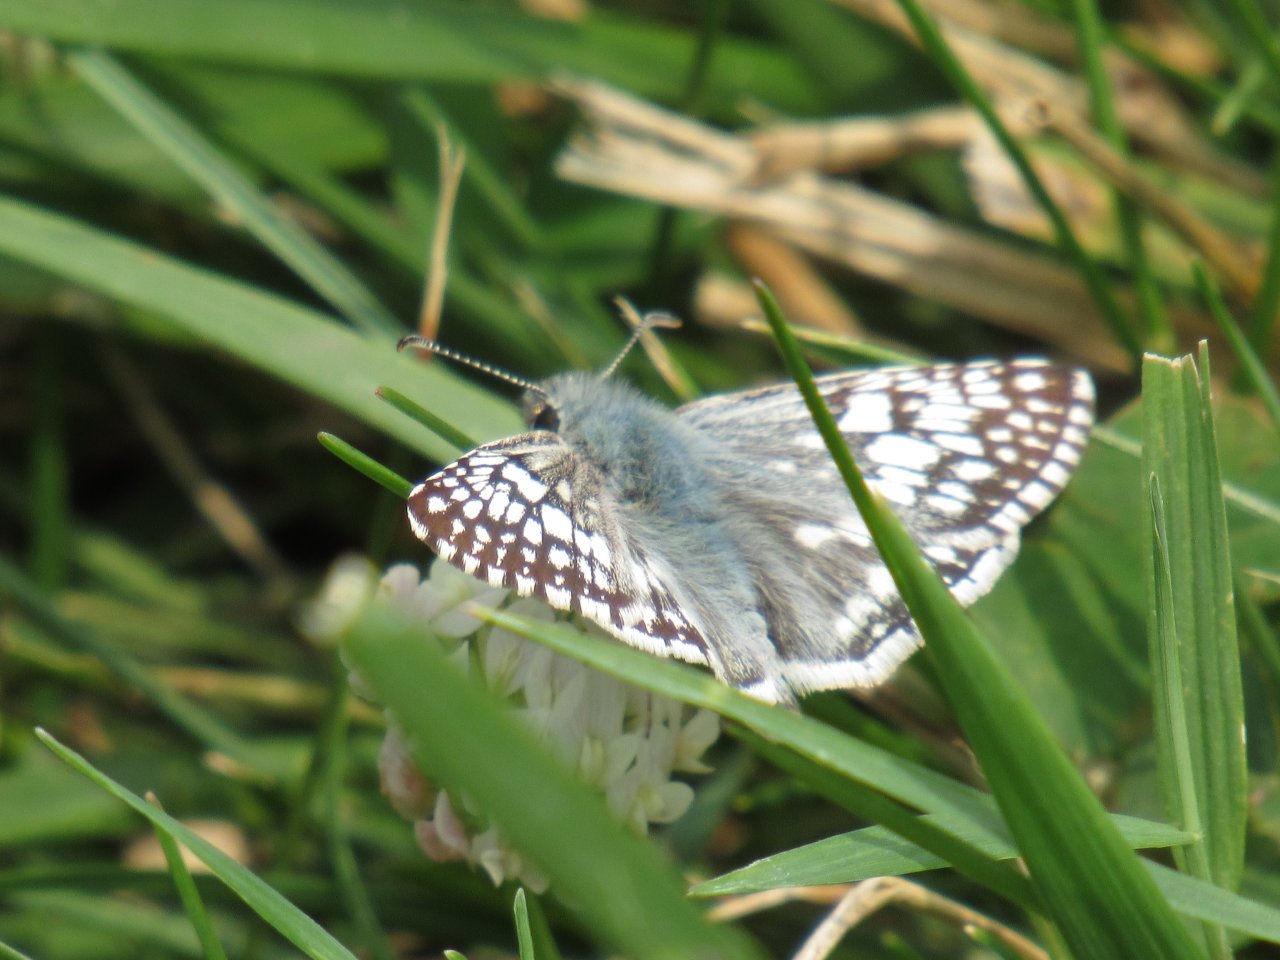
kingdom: Animalia
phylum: Arthropoda
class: Insecta
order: Lepidoptera
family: Hesperiidae
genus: Pyrgus
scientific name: Pyrgus communis
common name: Common Checkered-Skipper
